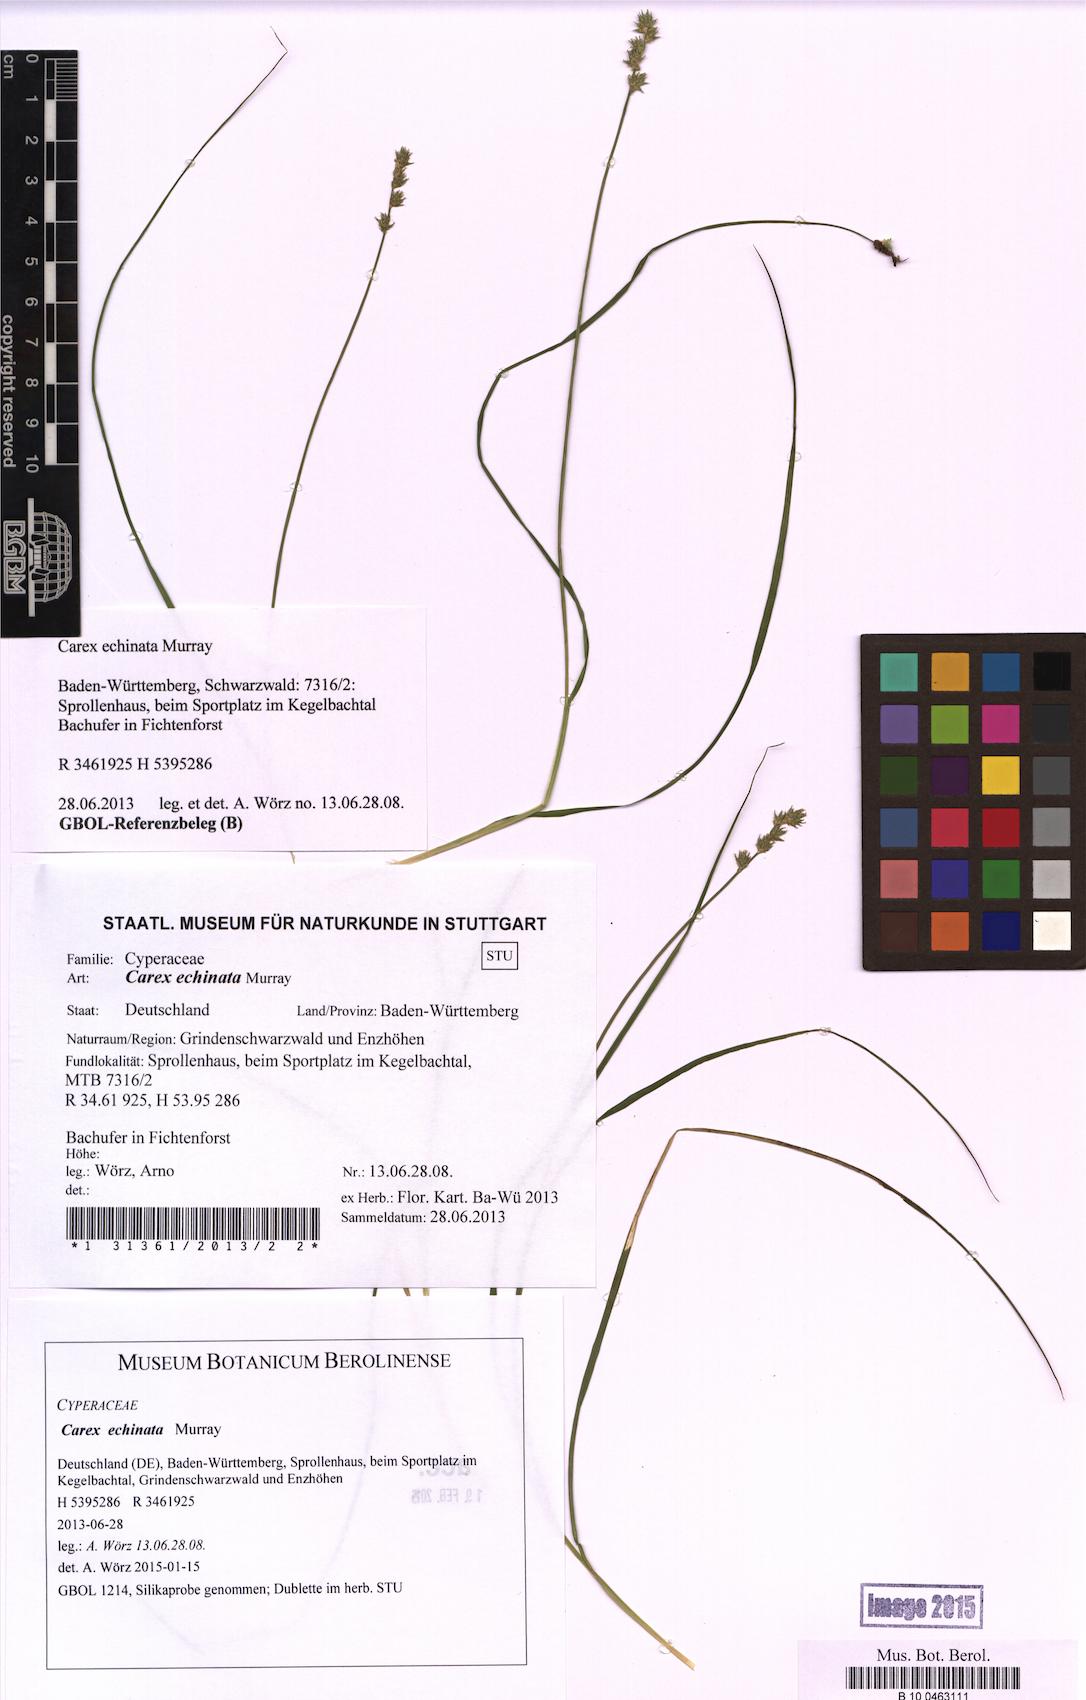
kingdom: Plantae
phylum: Tracheophyta
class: Liliopsida
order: Poales
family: Cyperaceae
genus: Carex
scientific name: Carex echinata
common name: Star sedge
